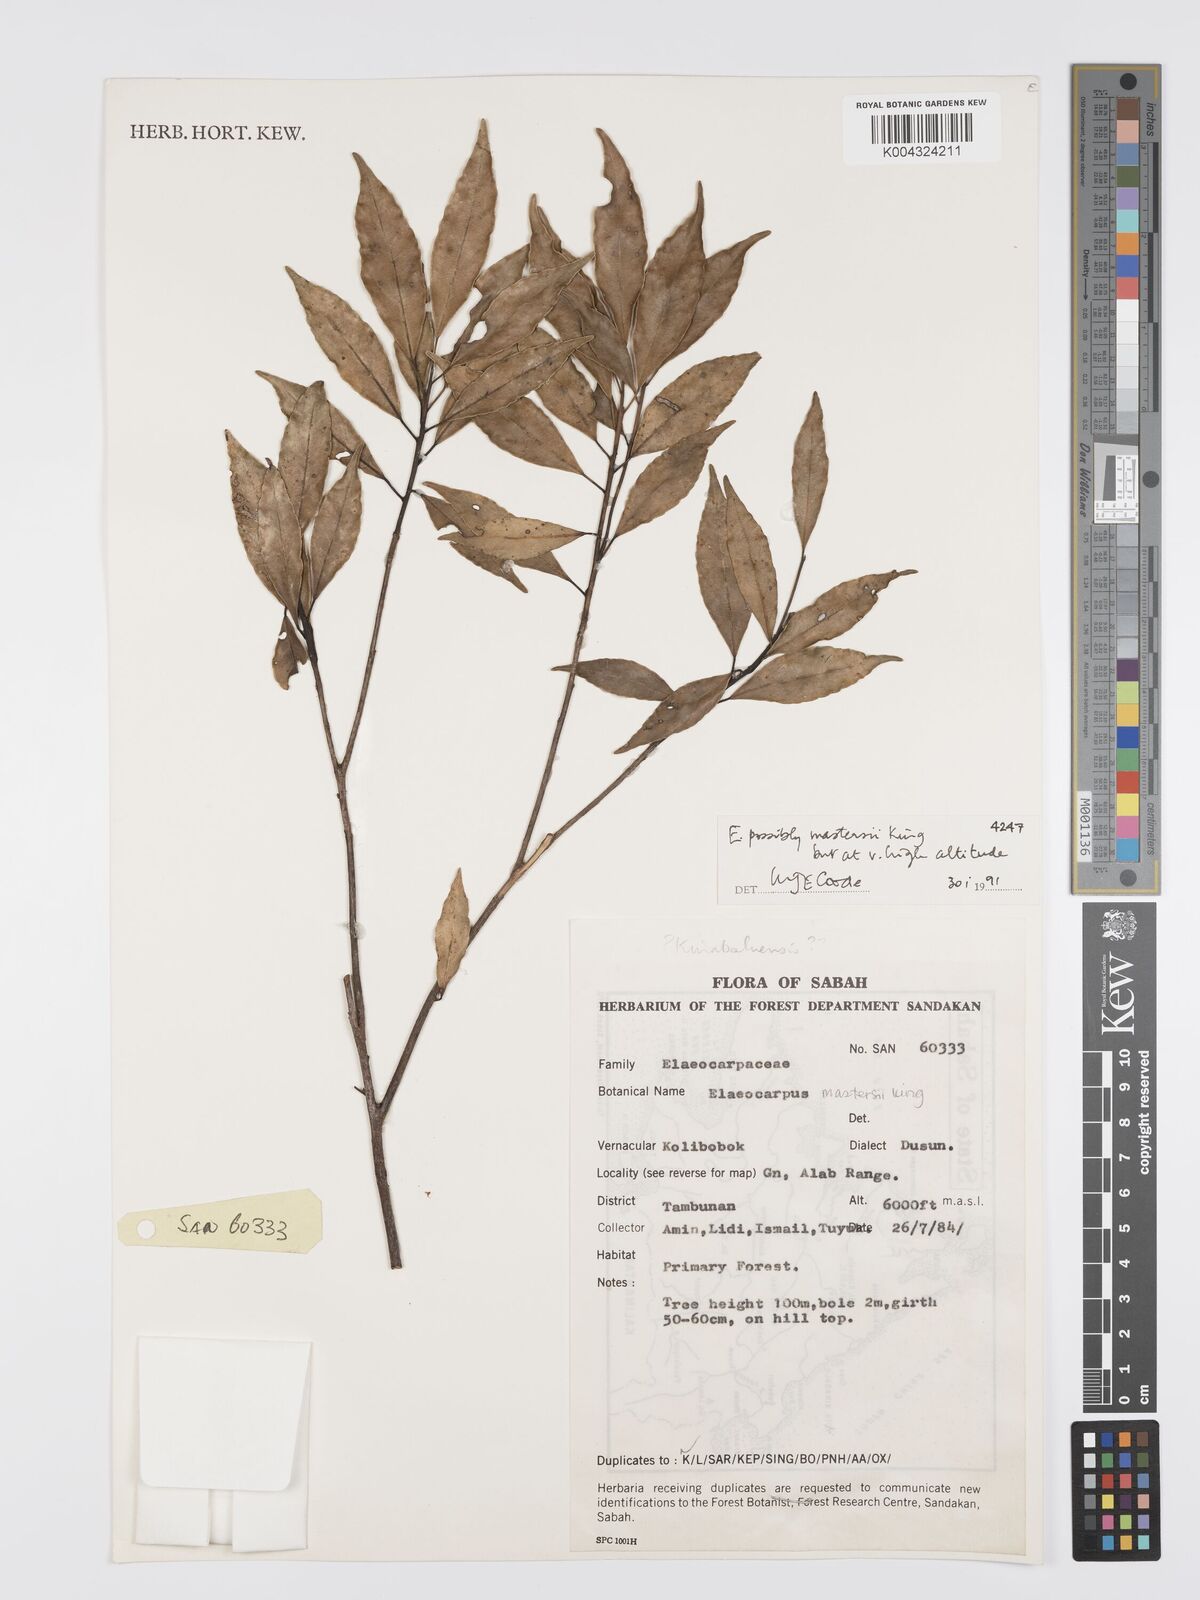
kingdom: Plantae
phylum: Tracheophyta
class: Magnoliopsida
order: Oxalidales
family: Elaeocarpaceae
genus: Elaeocarpus
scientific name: Elaeocarpus mastersii
